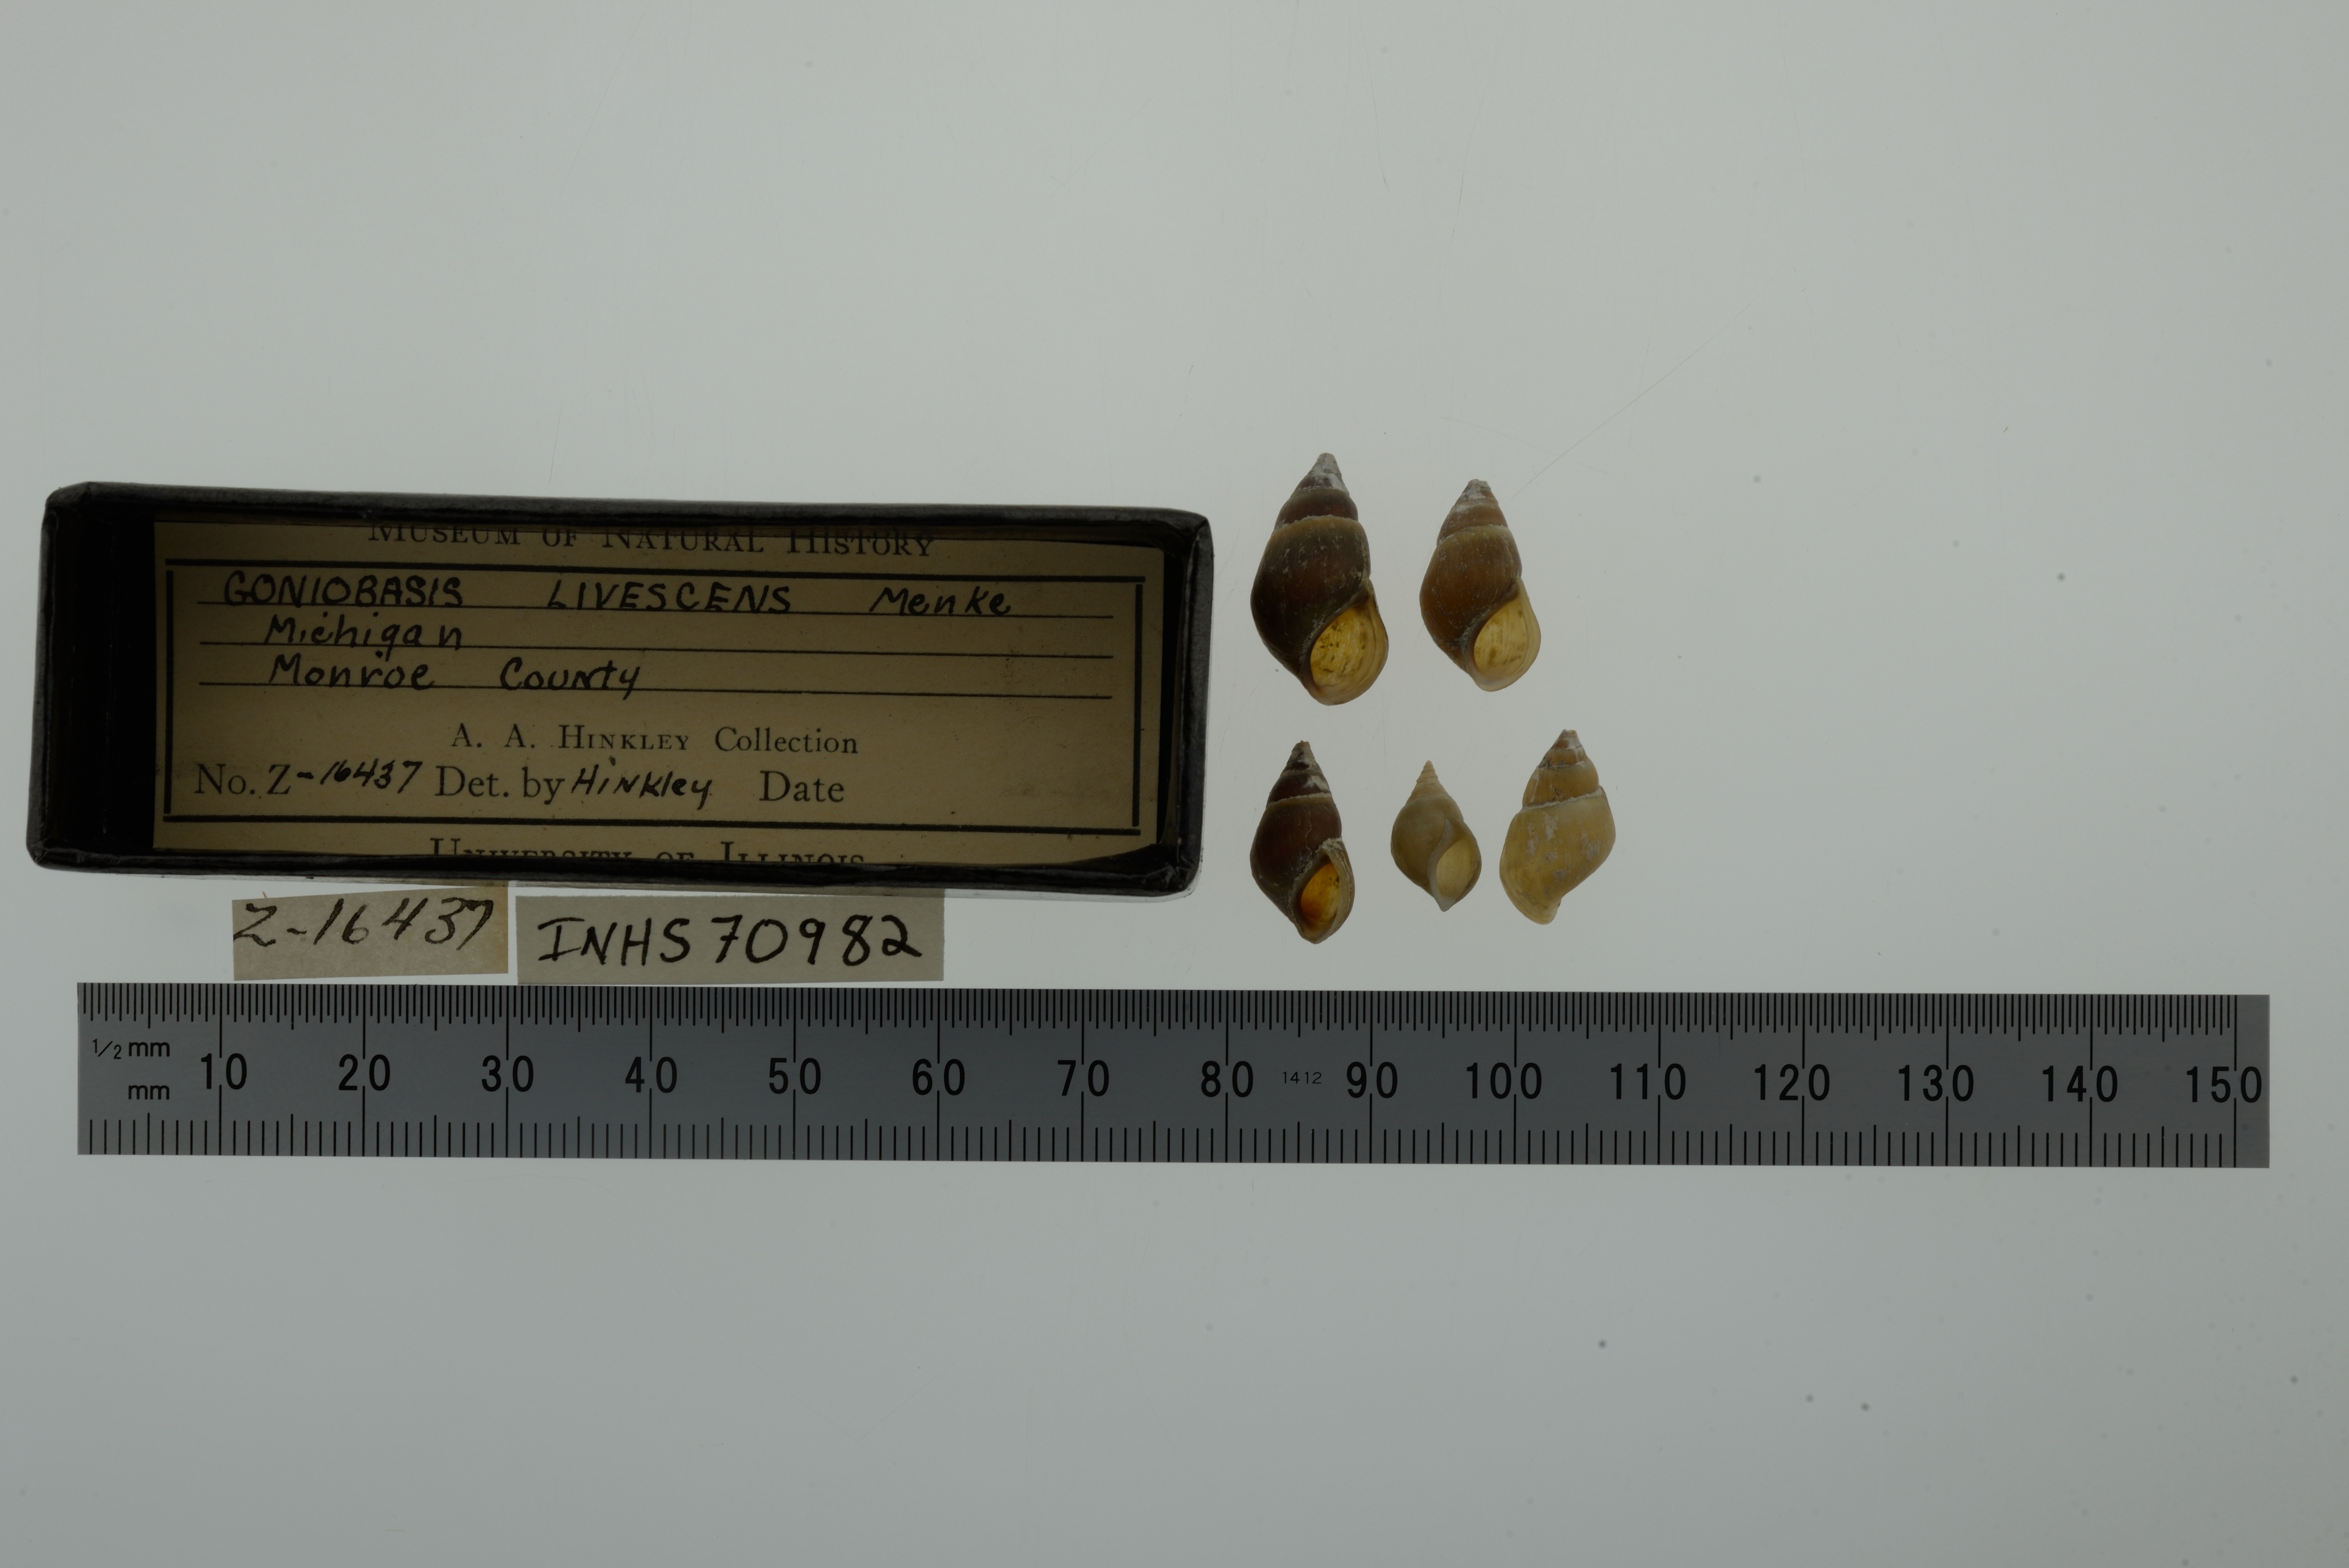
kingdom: Animalia
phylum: Mollusca
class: Gastropoda
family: Pleuroceridae
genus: Elimia
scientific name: Elimia livescens
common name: Liver elimia
